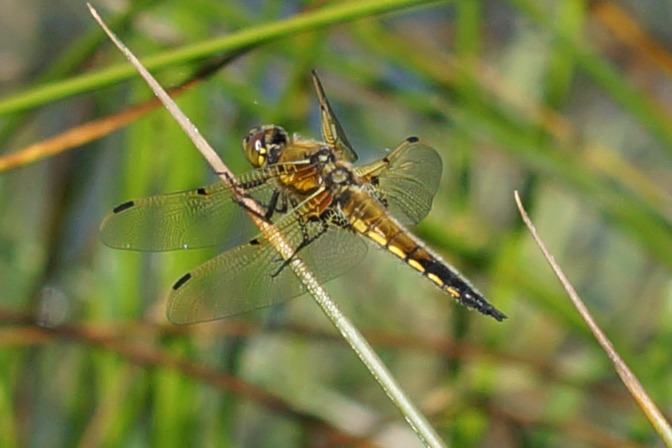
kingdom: Animalia
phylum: Arthropoda
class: Insecta
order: Odonata
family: Libellulidae
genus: Libellula
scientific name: Libellula quadrimaculata
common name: Fireplettet libel
